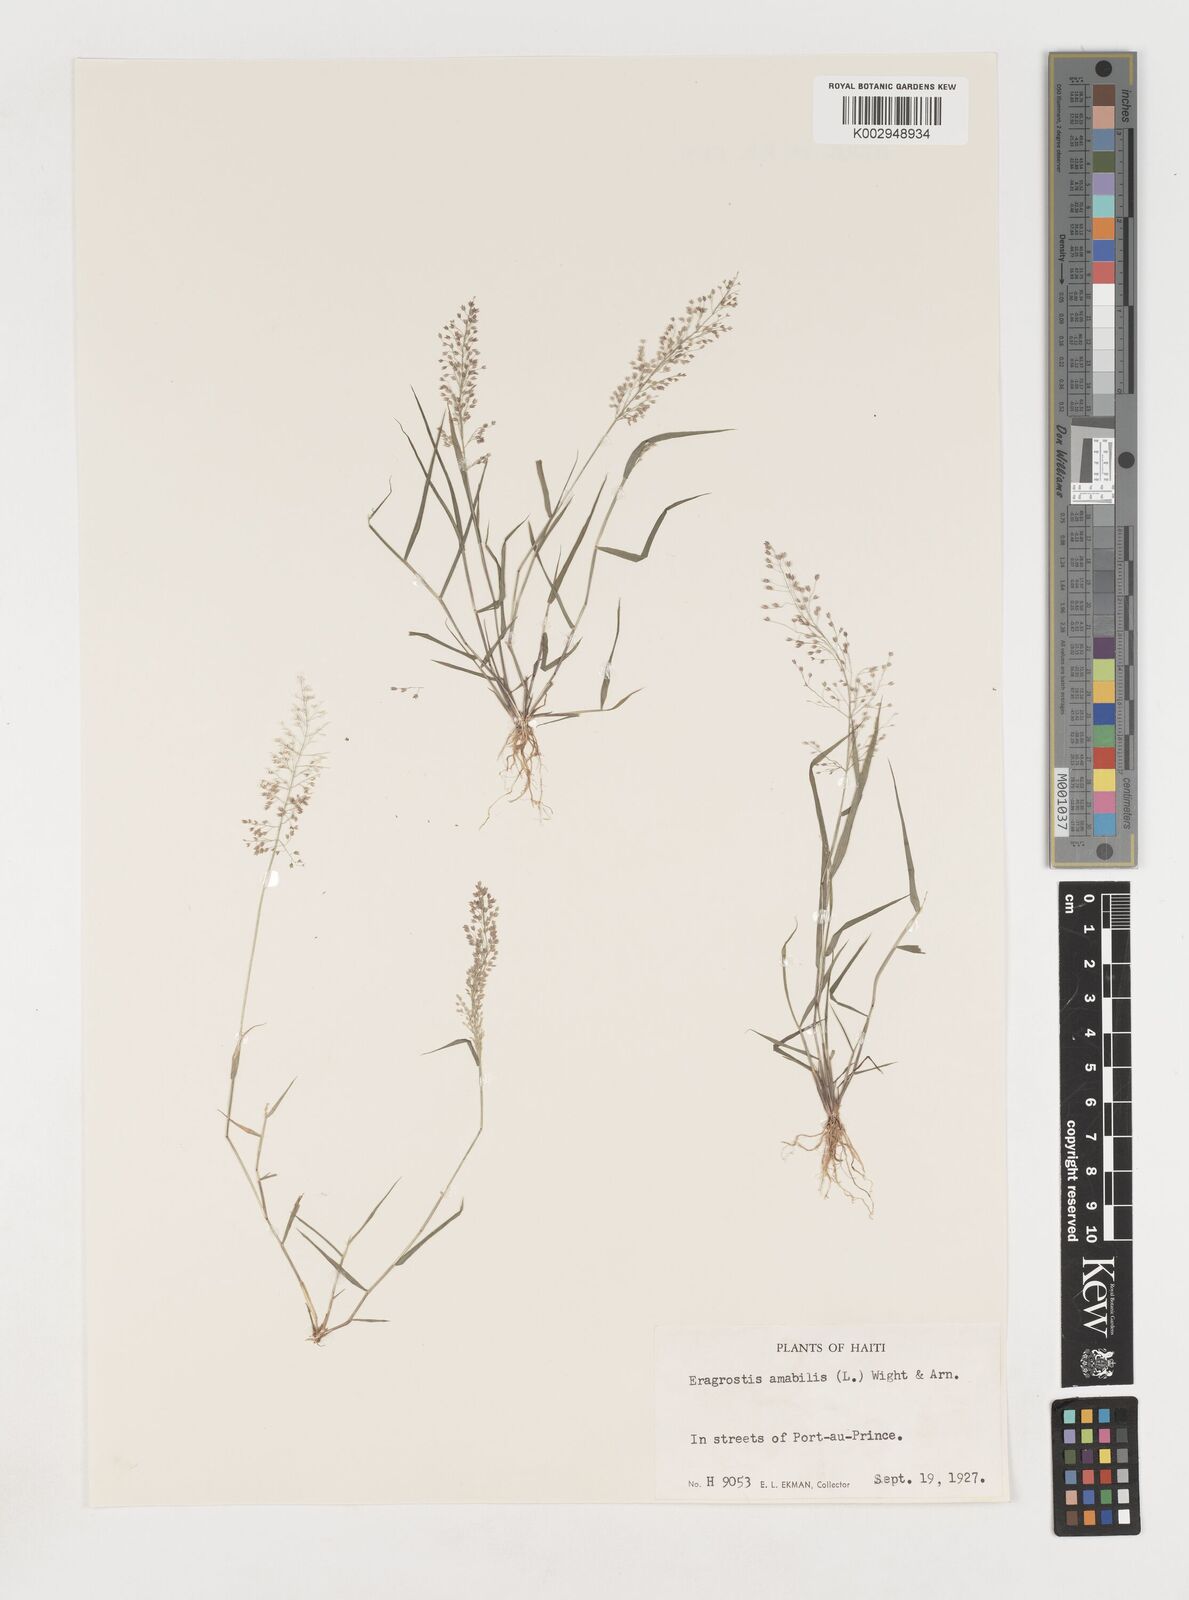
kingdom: Plantae
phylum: Tracheophyta
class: Liliopsida
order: Poales
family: Poaceae
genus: Eragrostis
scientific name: Eragrostis
